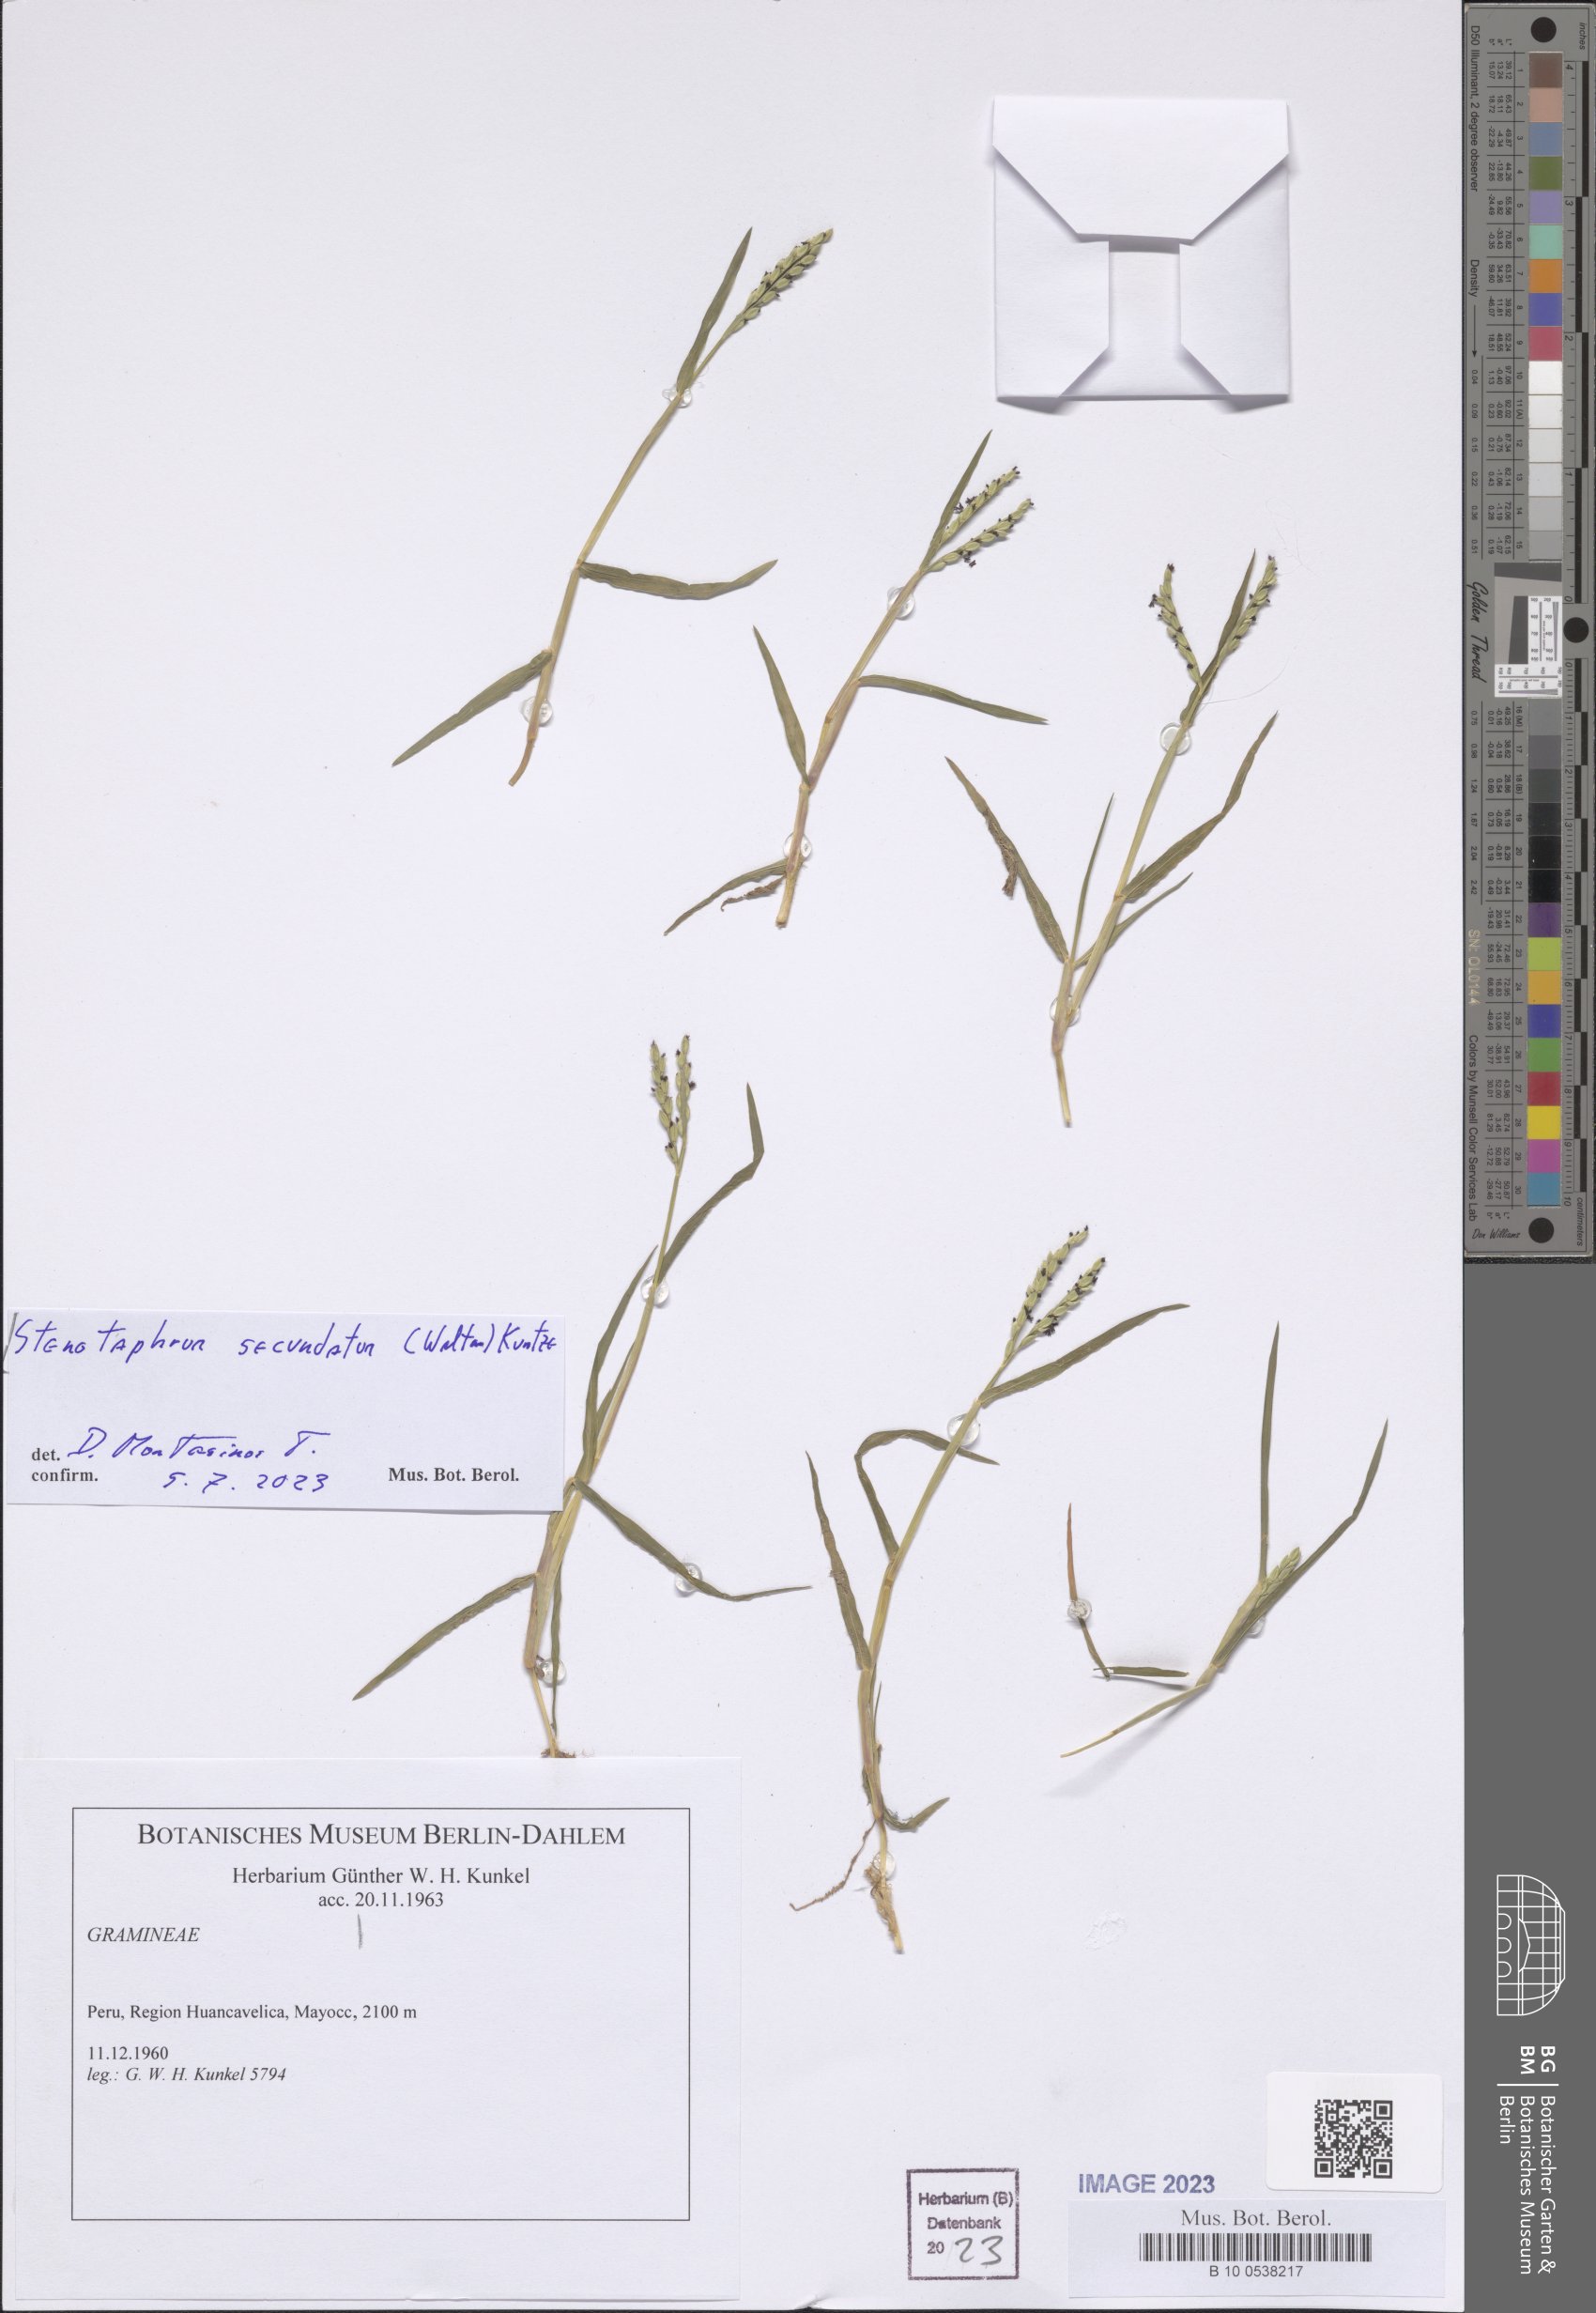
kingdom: Plantae
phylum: Tracheophyta
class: Liliopsida
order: Poales
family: Poaceae
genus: Stenotaphrum
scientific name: Stenotaphrum secundatum
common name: St. augustine grass
